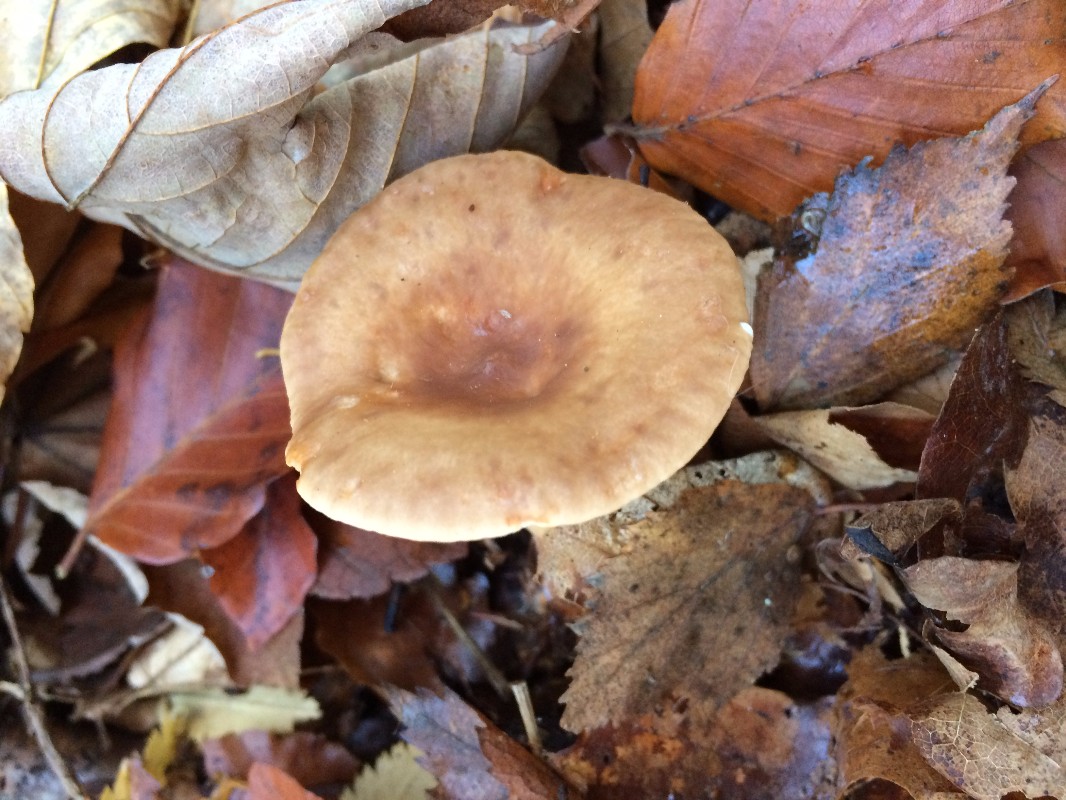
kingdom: Fungi
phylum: Basidiomycota
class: Agaricomycetes
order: Russulales
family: Russulaceae
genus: Lactarius
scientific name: Lactarius subdulcis
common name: sødlig mælkehat
